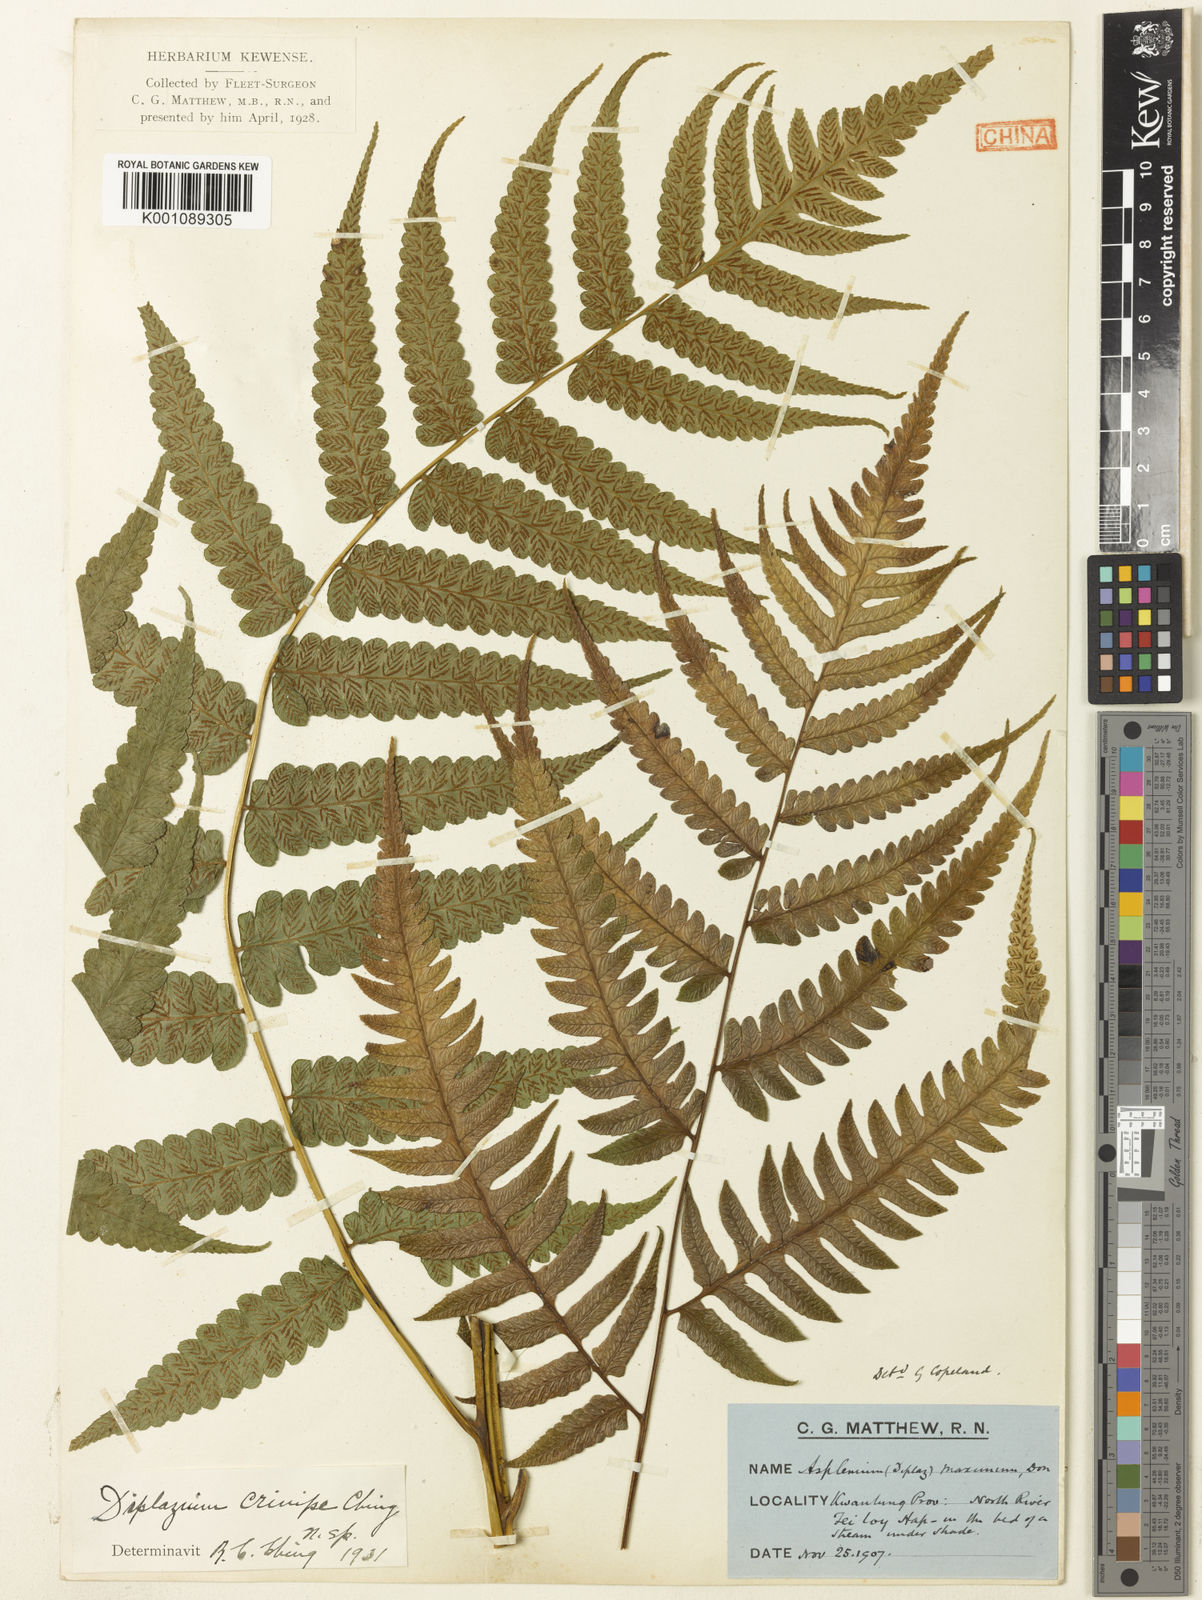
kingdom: Plantae
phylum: Tracheophyta
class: Polypodiopsida
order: Polypodiales
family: Athyriaceae
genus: Diplazium
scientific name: Diplazium dilatatum
